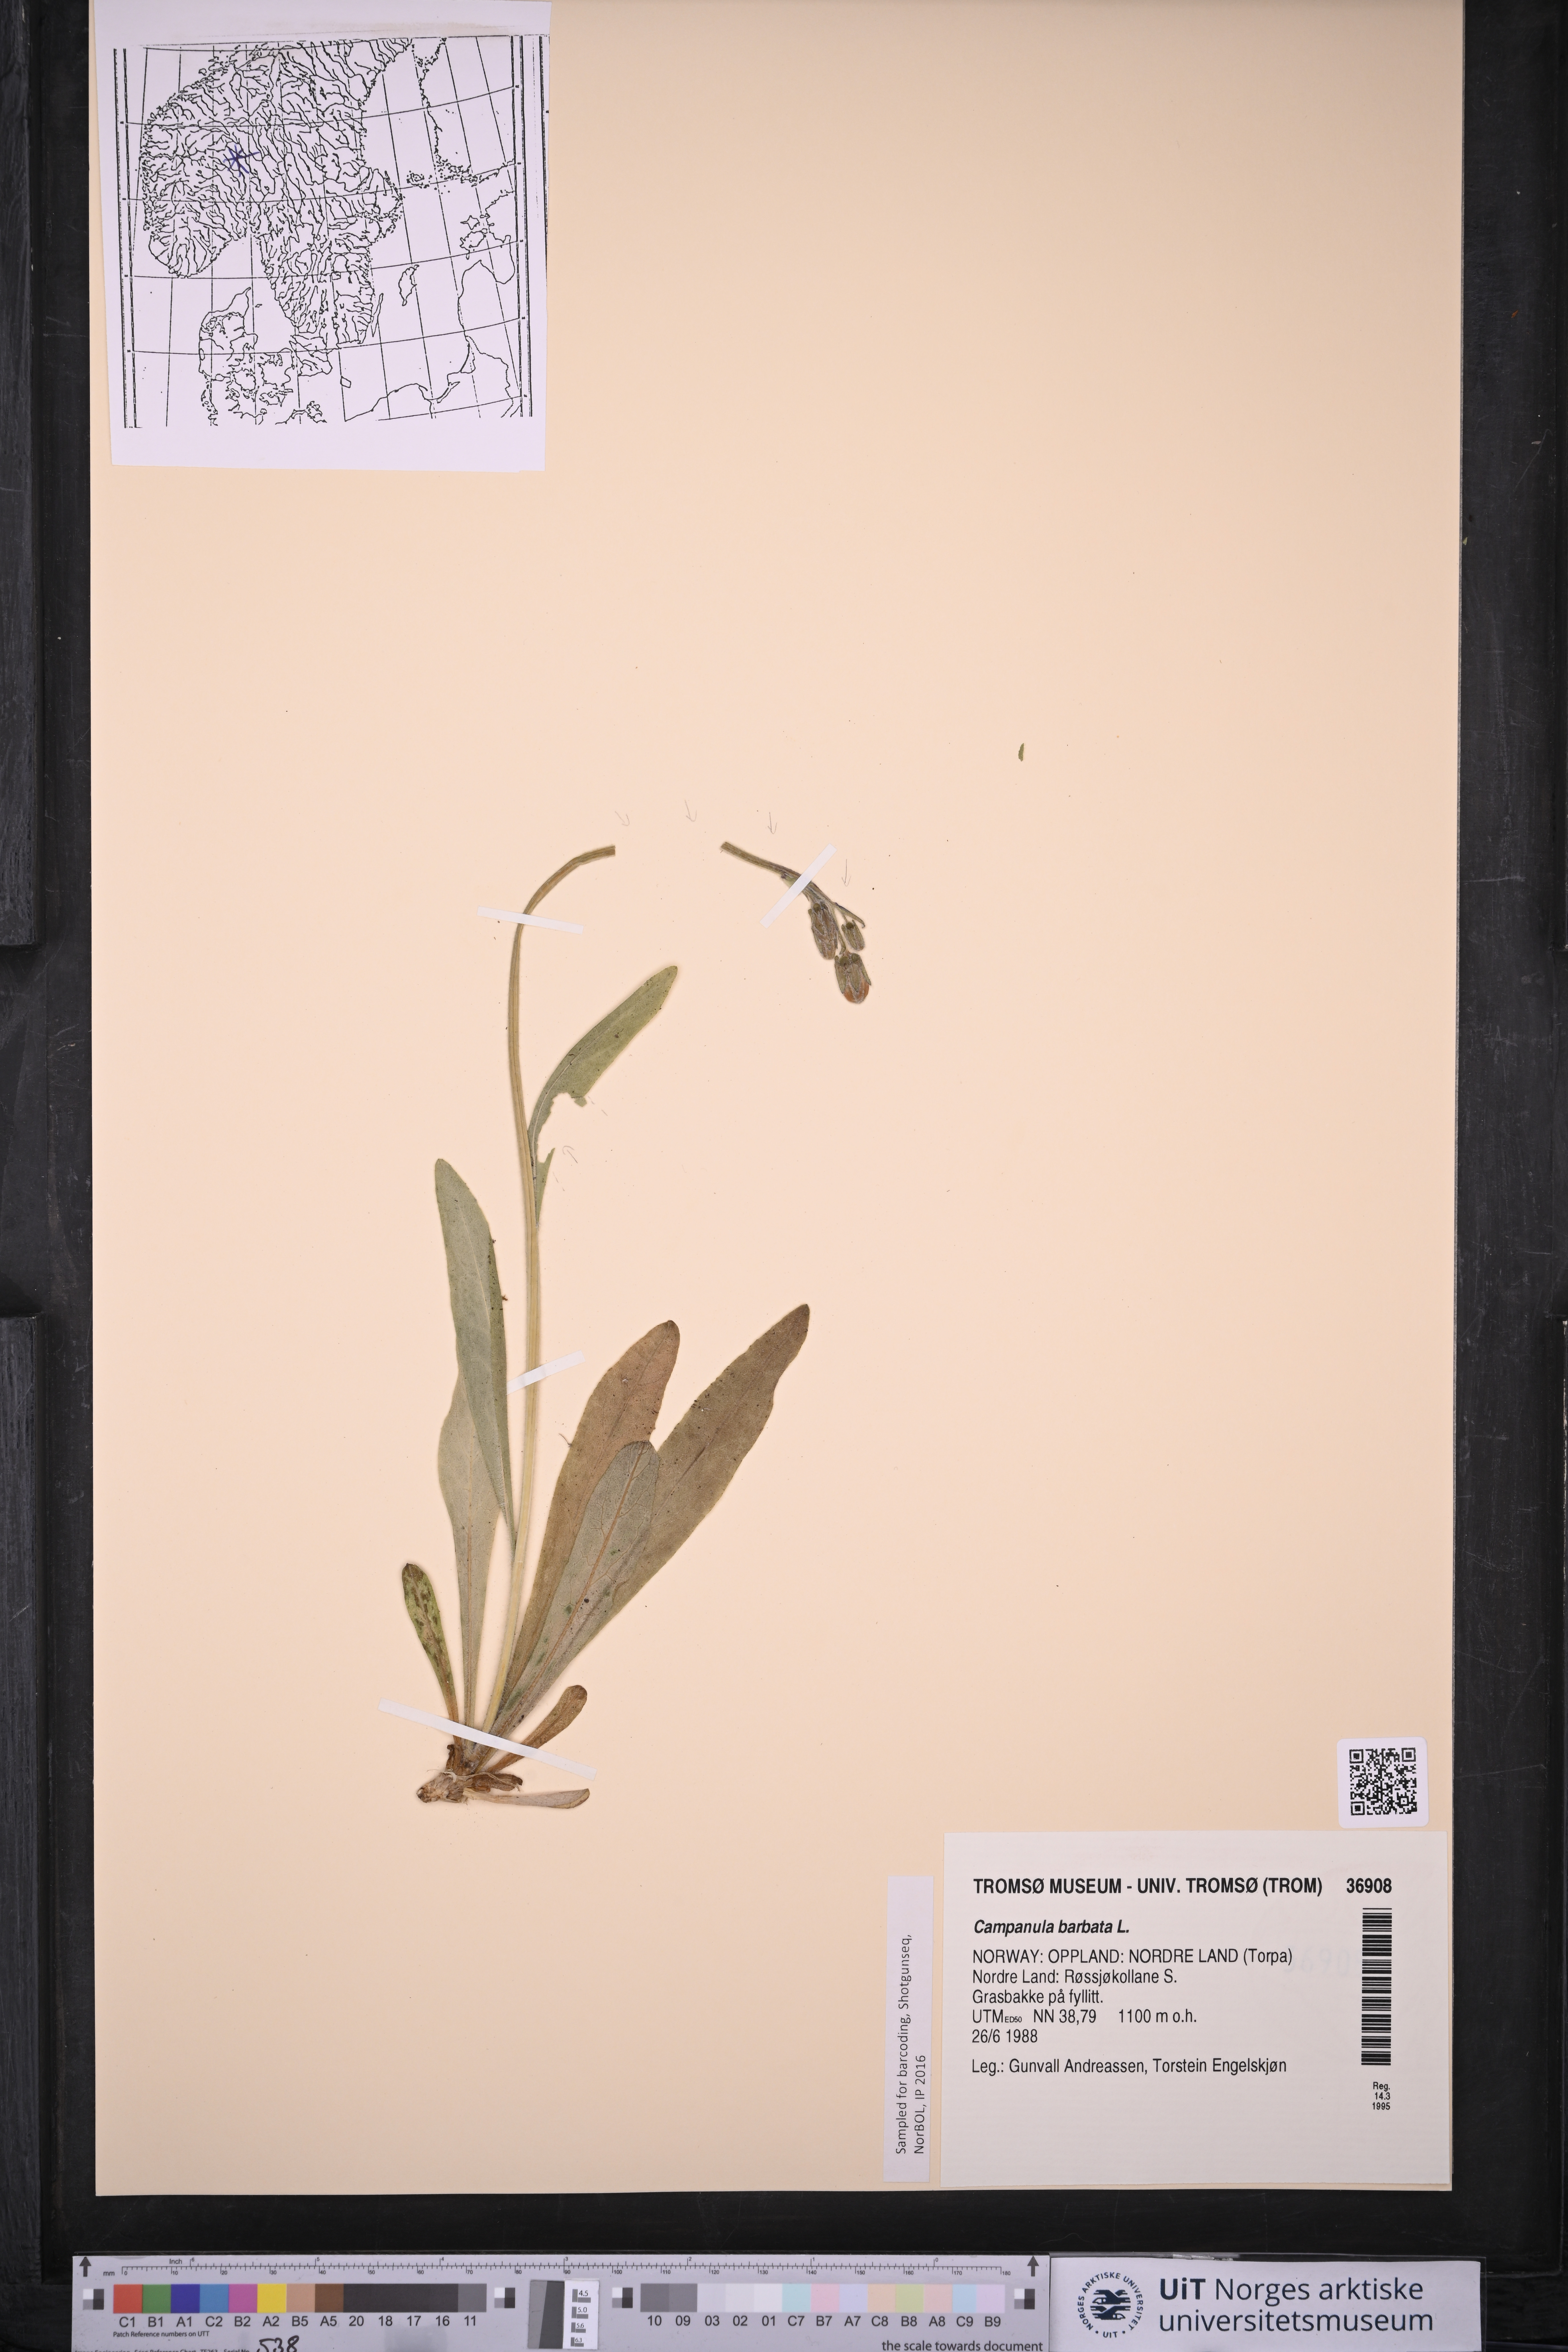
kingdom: Plantae
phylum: Tracheophyta
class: Magnoliopsida
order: Asterales
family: Campanulaceae
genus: Campanula
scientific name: Campanula barbata
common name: Bearded bellflower
